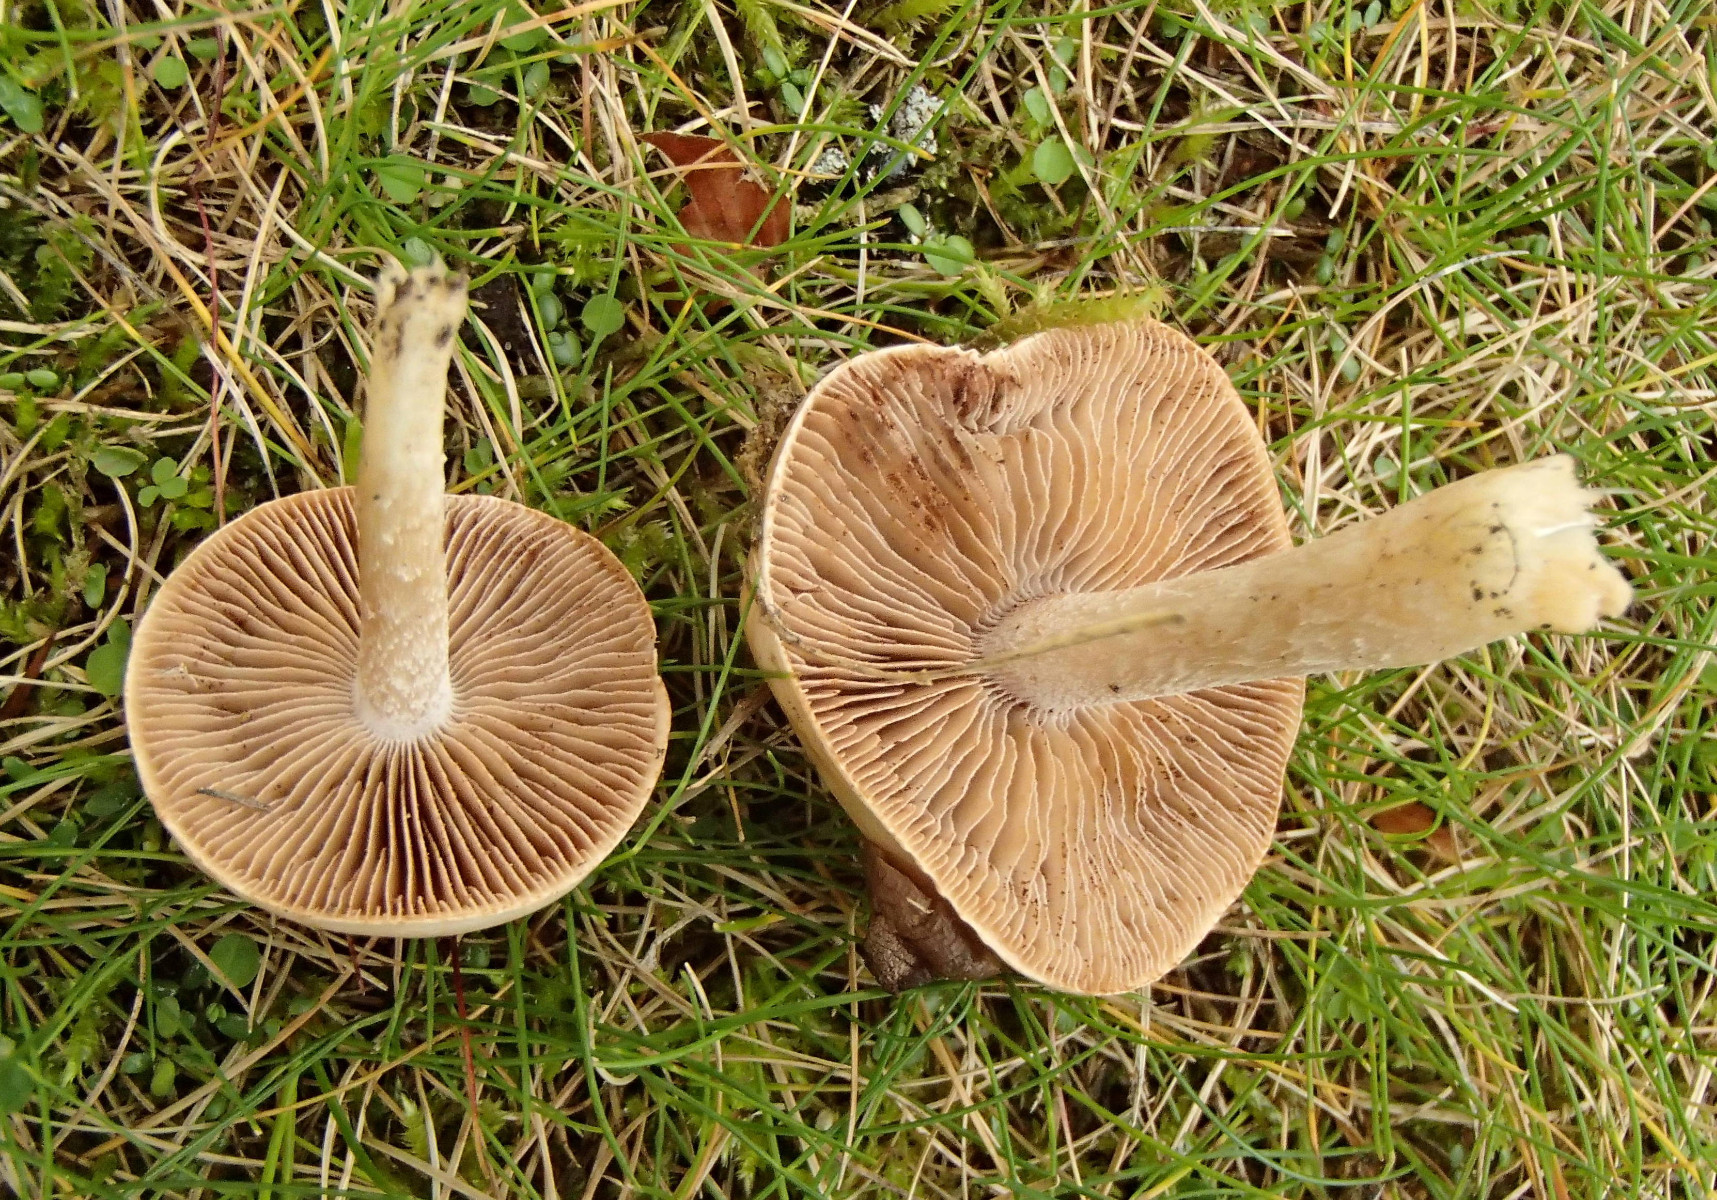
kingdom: Fungi
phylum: Basidiomycota
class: Agaricomycetes
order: Agaricales
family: Hymenogastraceae
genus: Hebeloma
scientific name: Hebeloma
